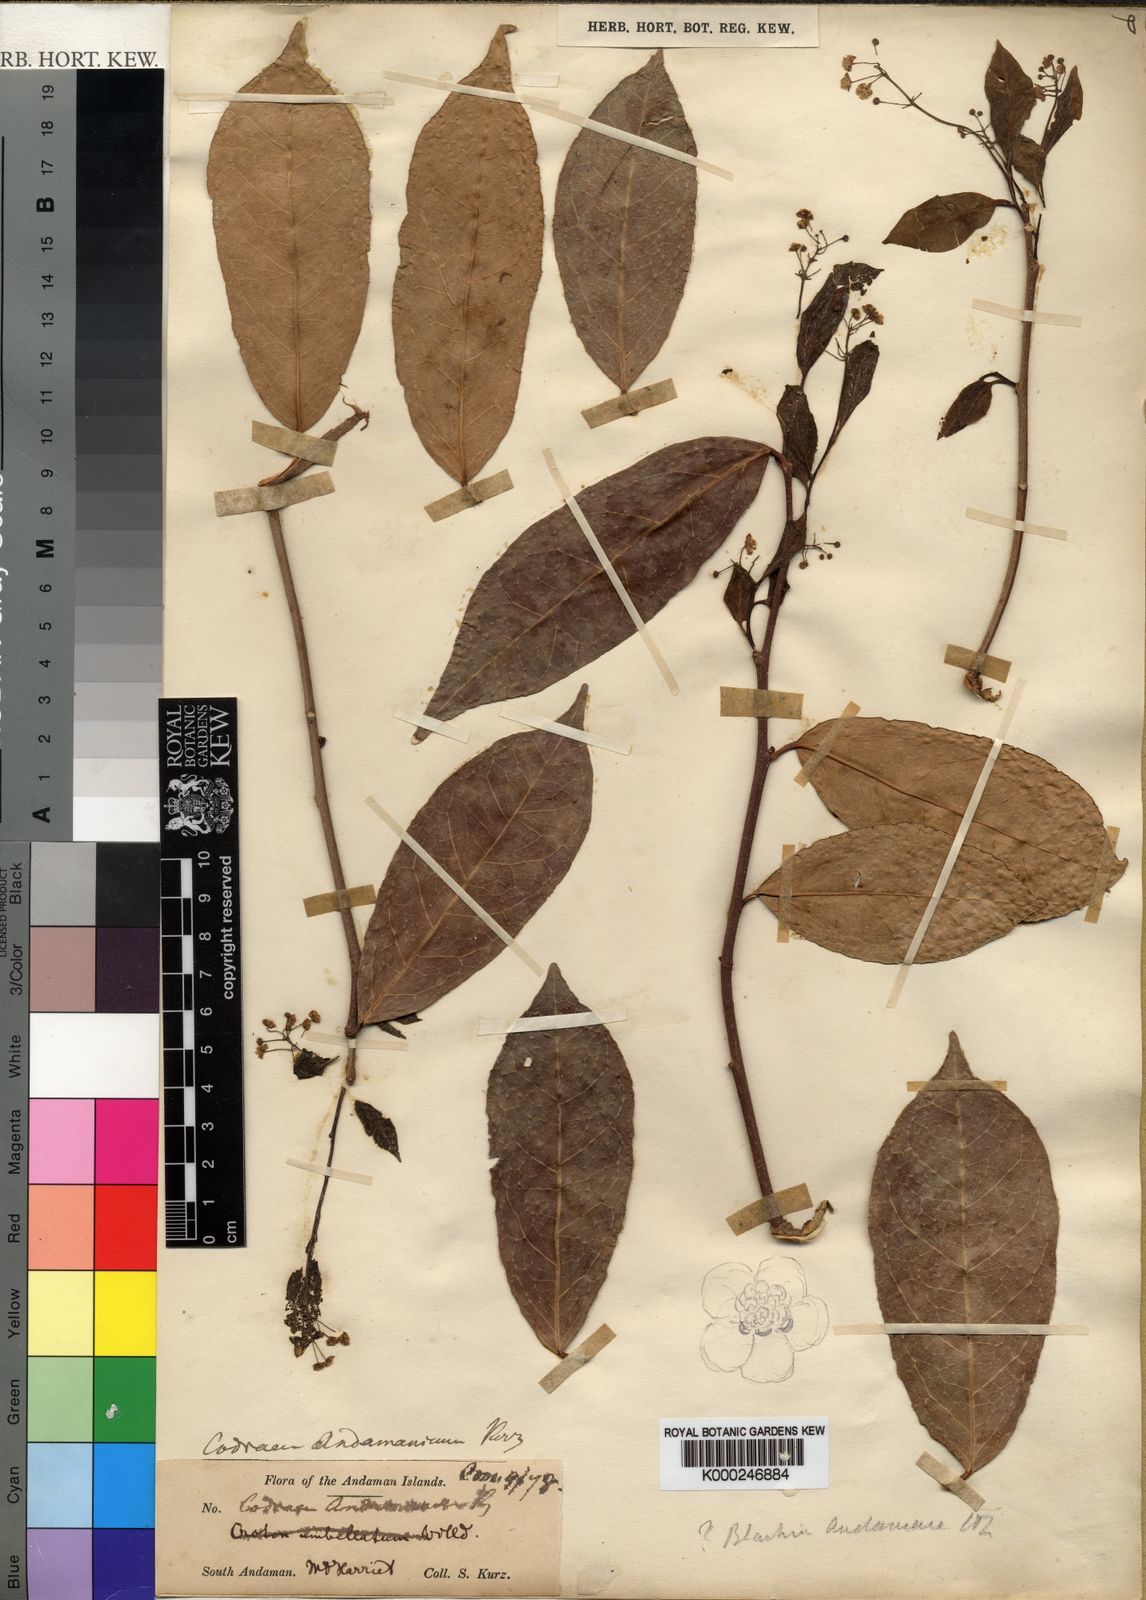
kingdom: Plantae
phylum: Tracheophyta
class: Magnoliopsida
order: Malpighiales
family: Euphorbiaceae
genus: Blachia
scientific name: Blachia andamanica
